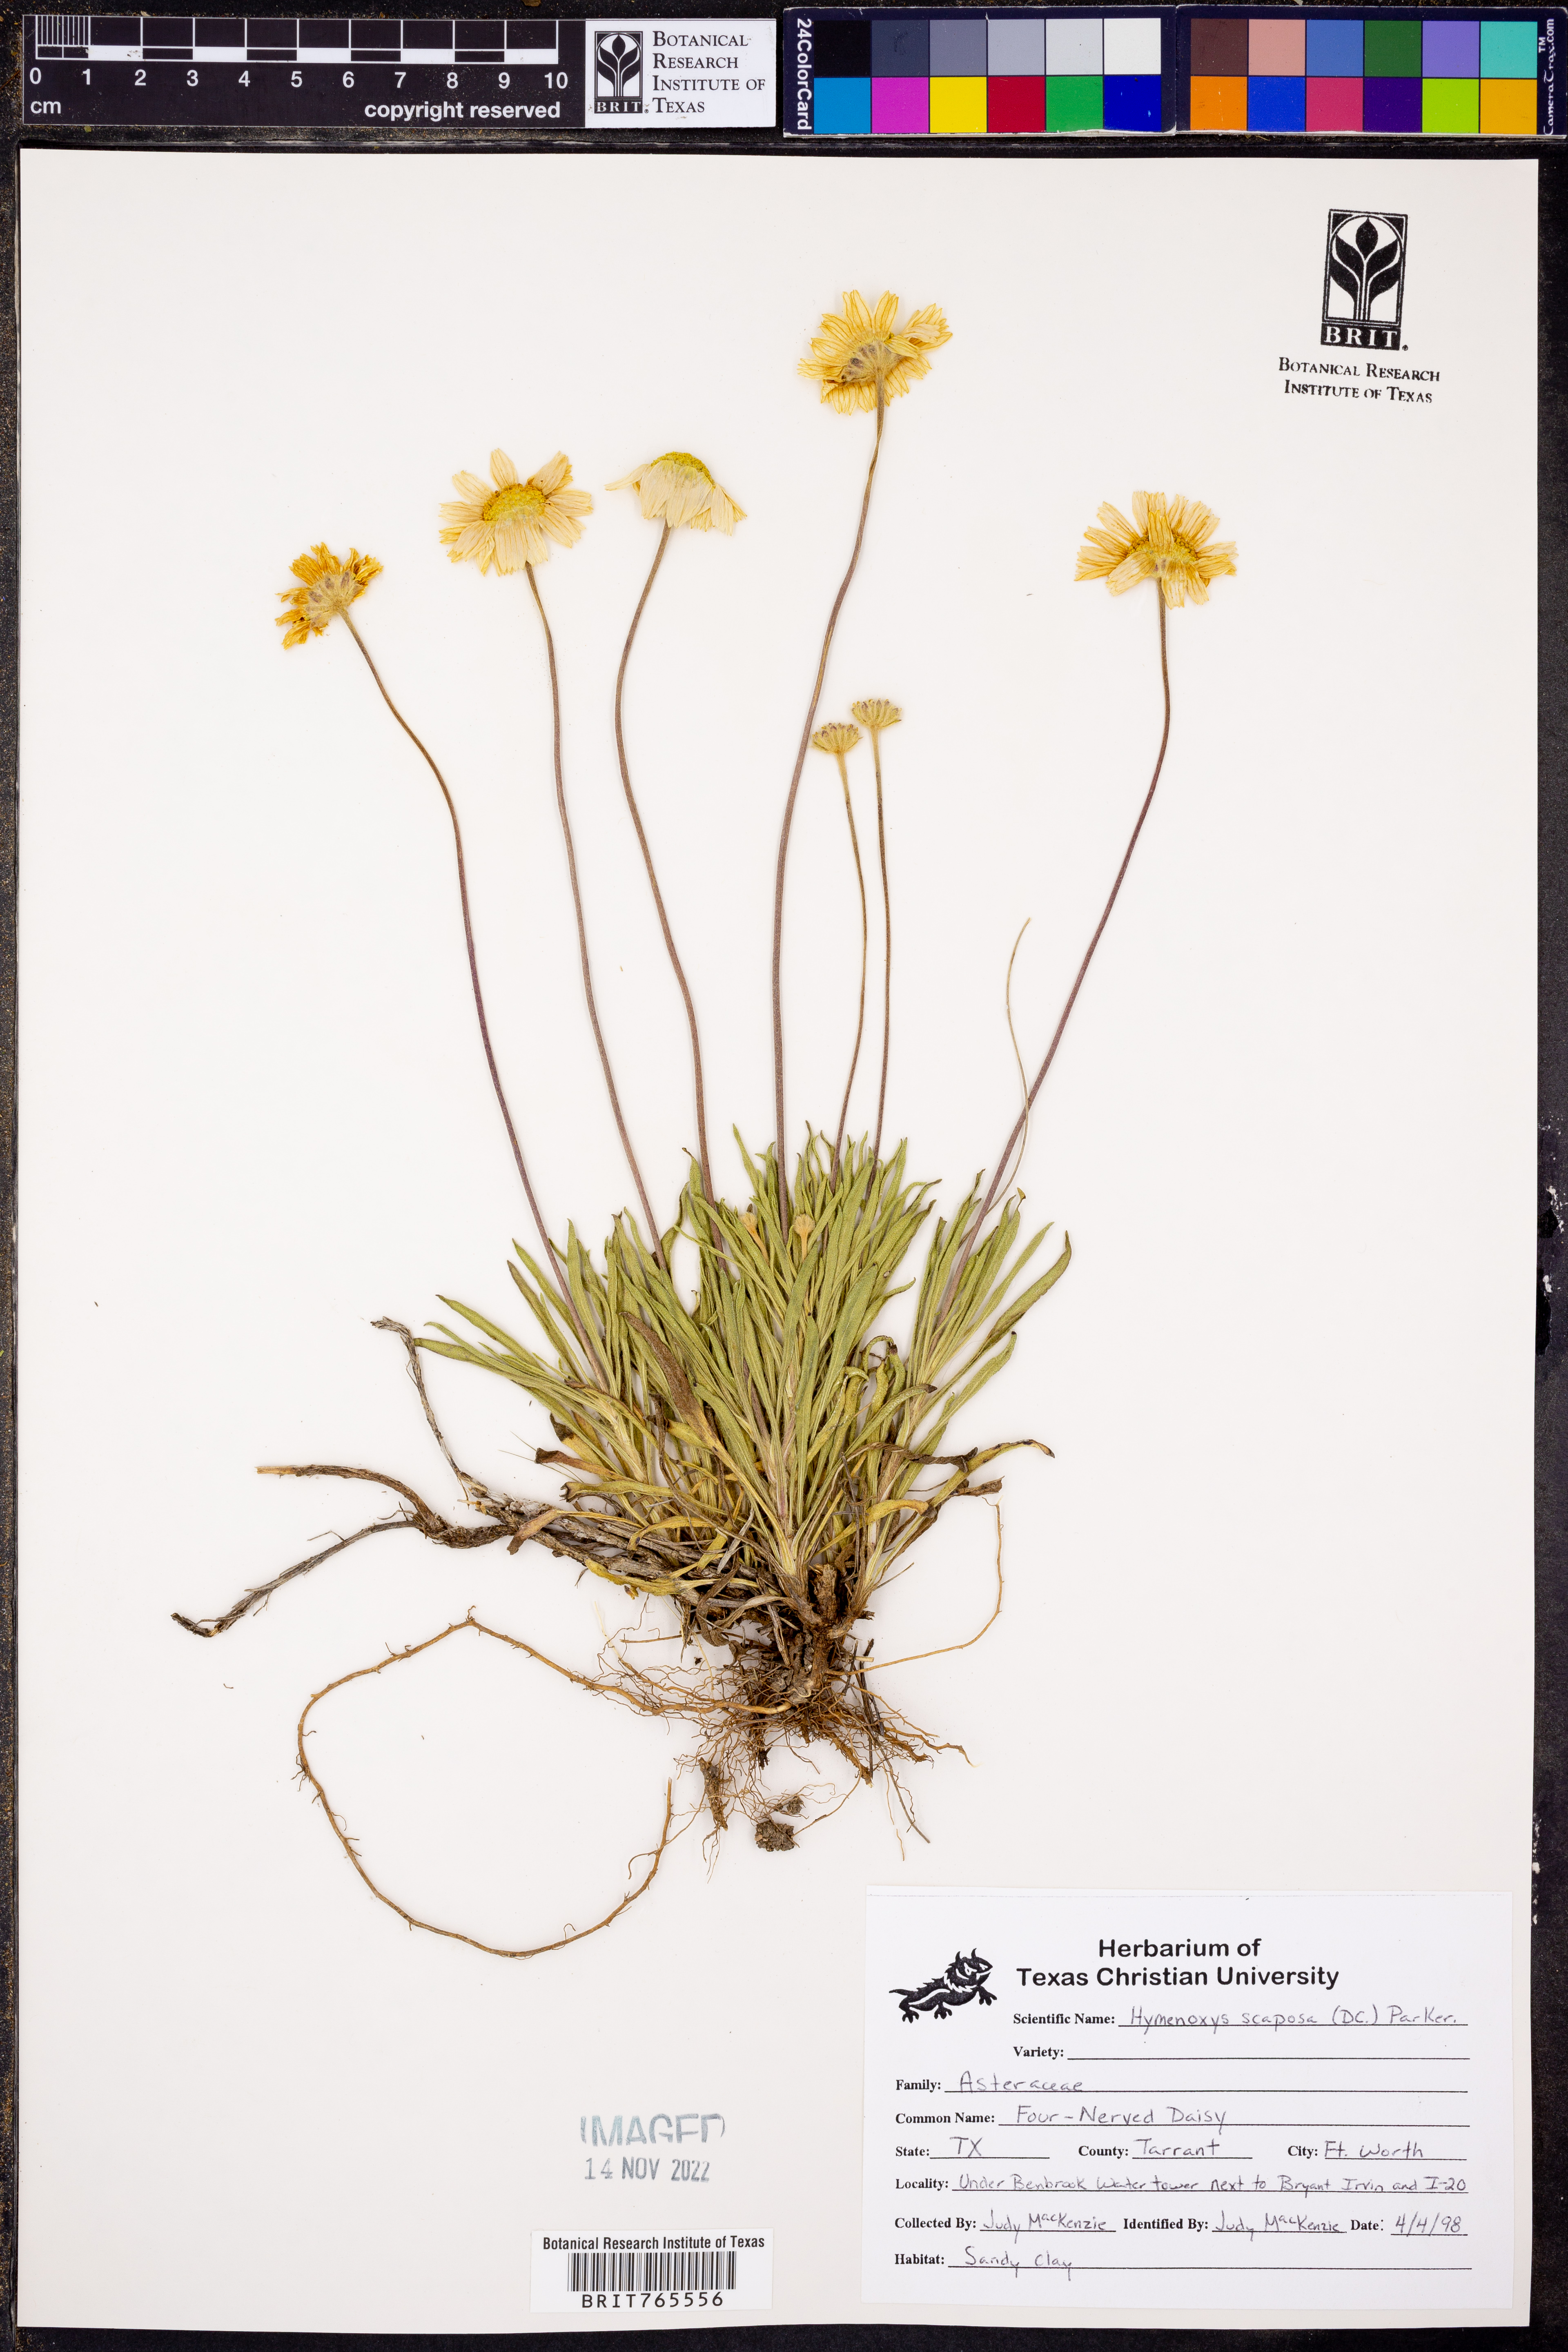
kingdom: Plantae
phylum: Tracheophyta
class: Magnoliopsida
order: Asterales
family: Asteraceae
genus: Tetraneuris
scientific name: Tetraneuris scaposa
